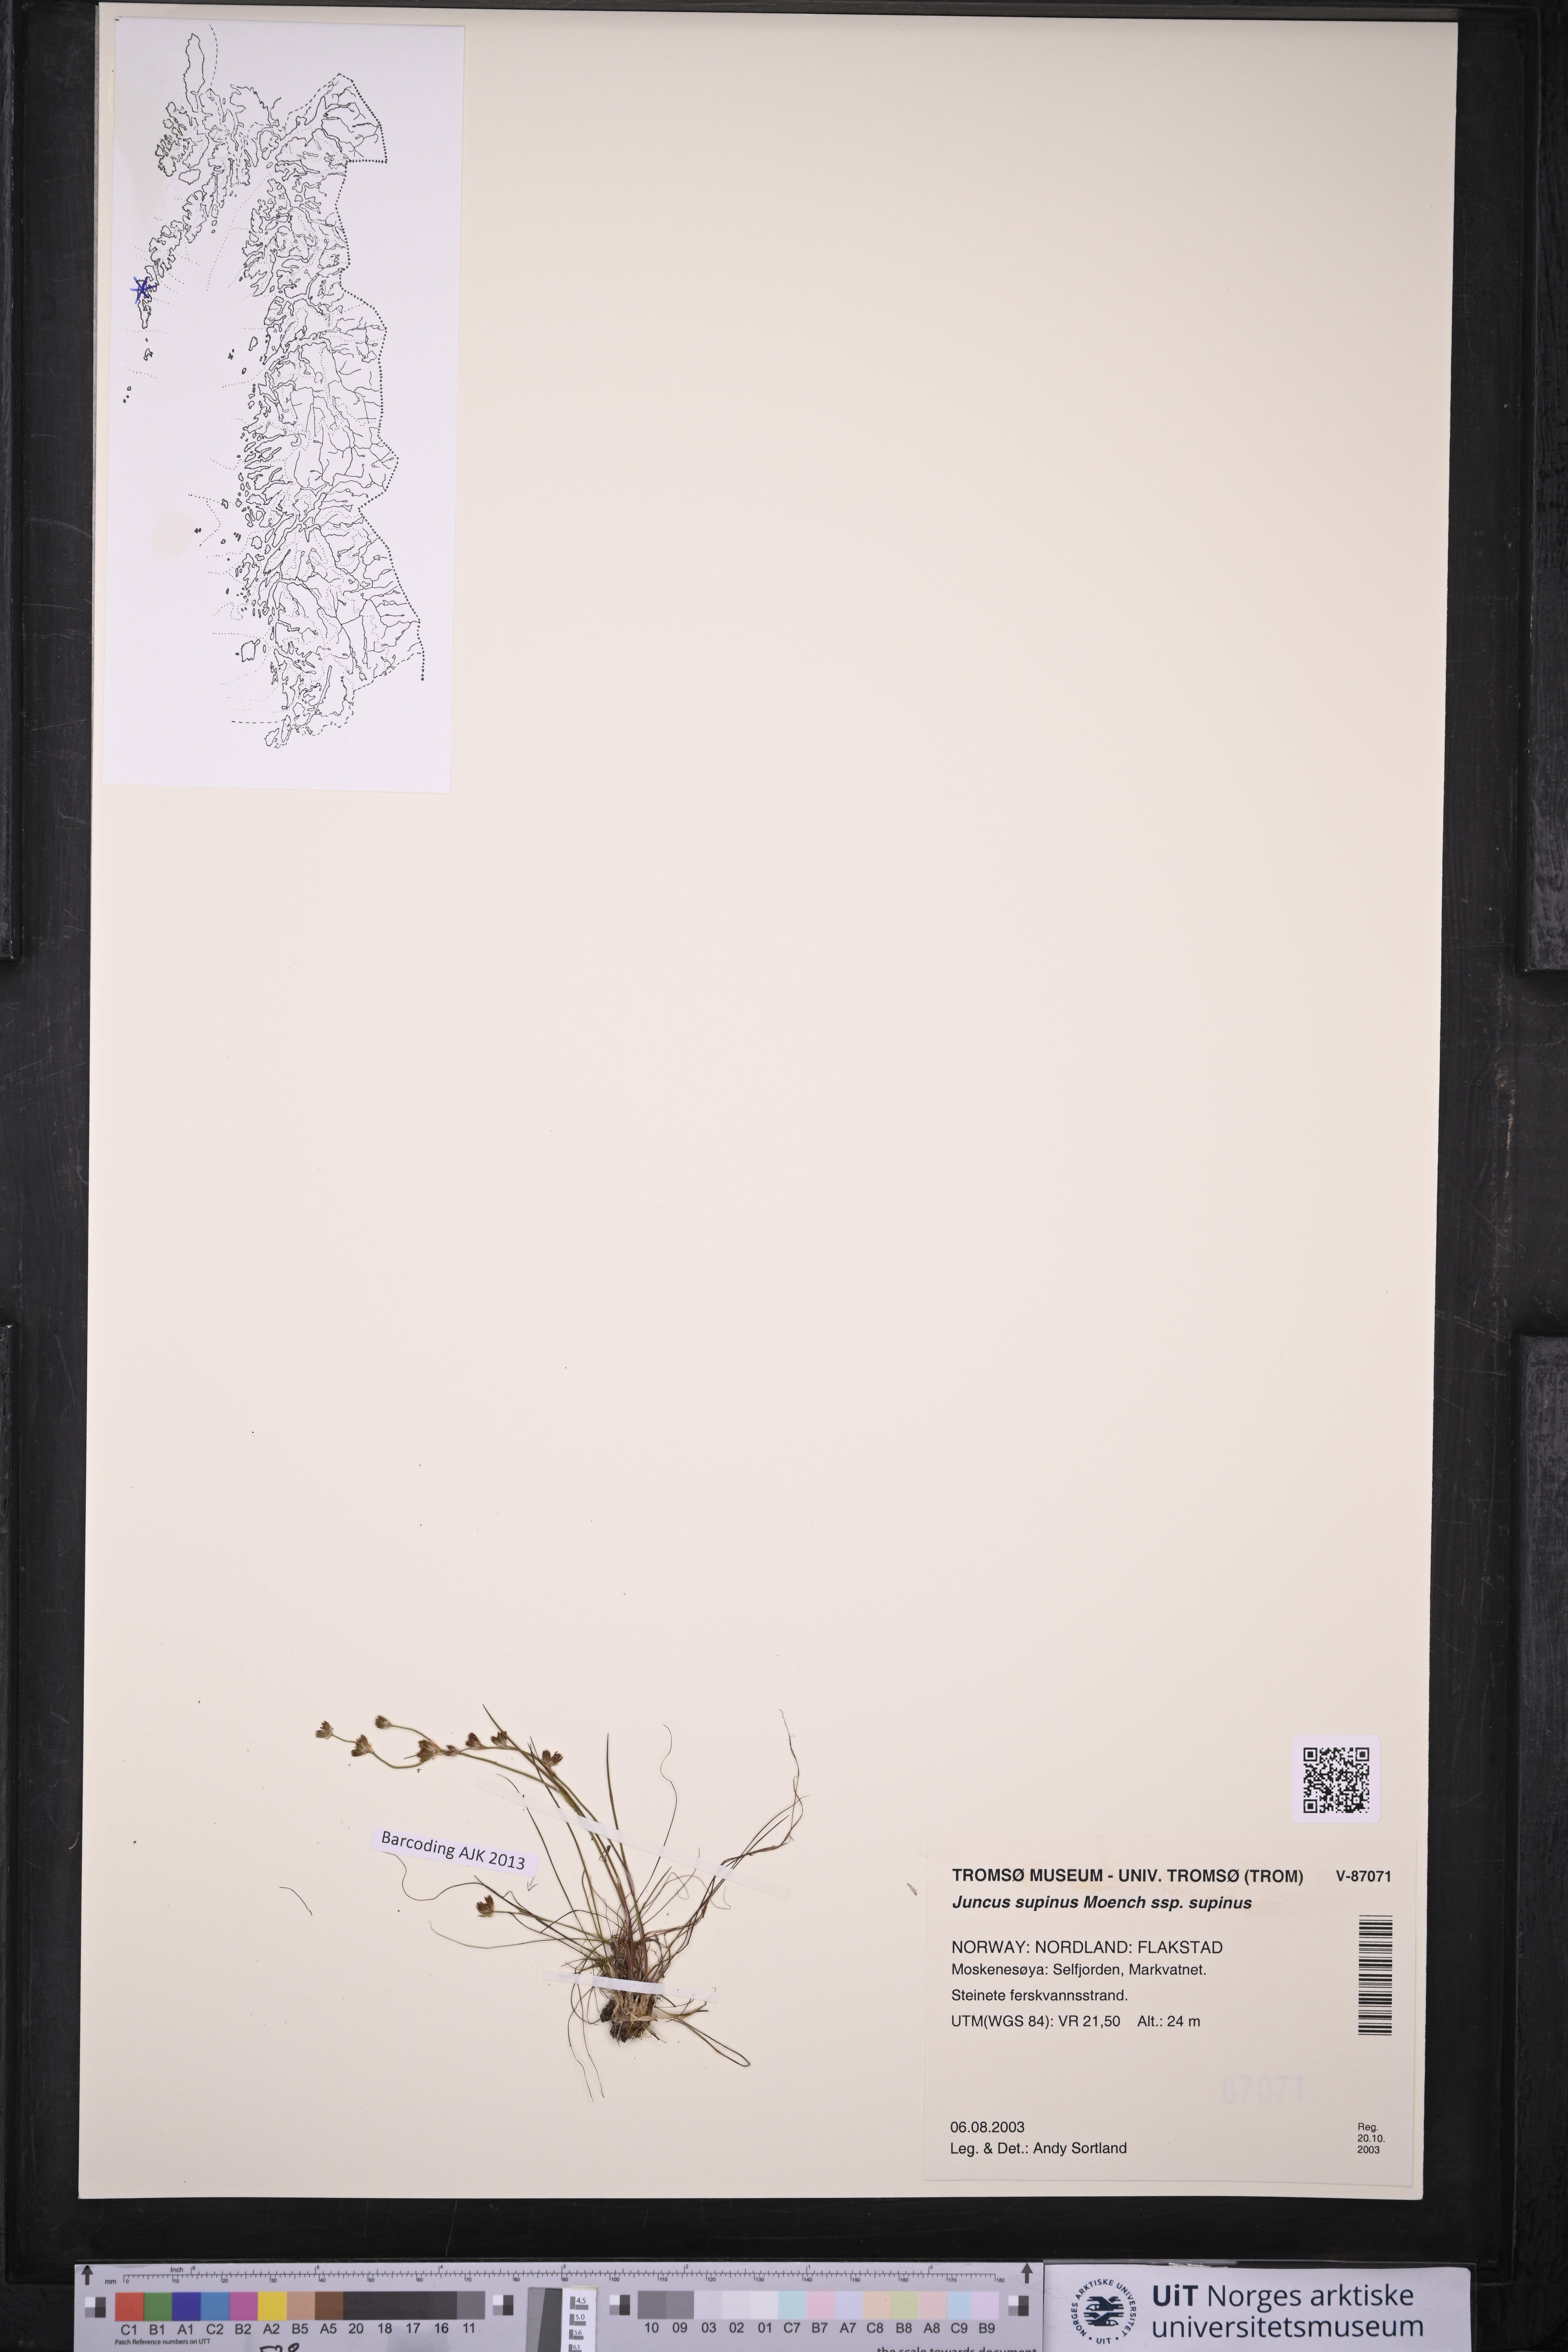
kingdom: Plantae
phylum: Tracheophyta
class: Liliopsida
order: Poales
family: Juncaceae
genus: Juncus
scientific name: Juncus bulbosus
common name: Bulbous rush
